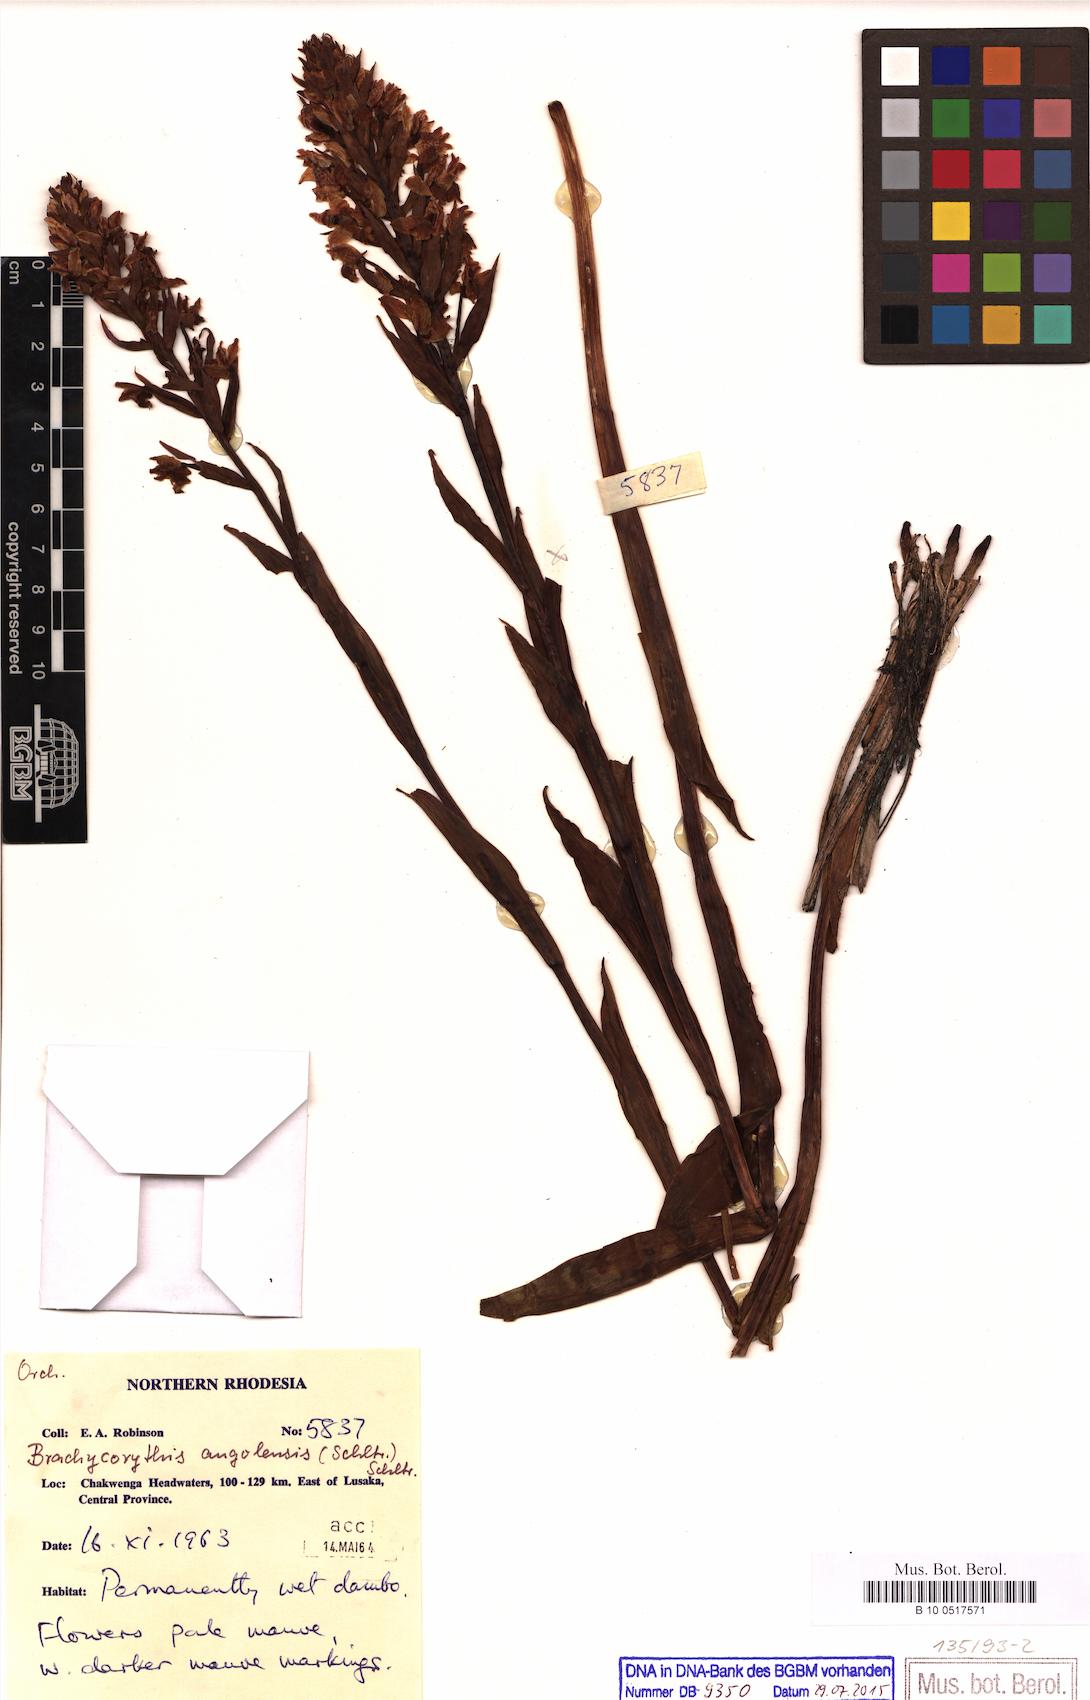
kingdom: Plantae
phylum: Tracheophyta
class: Liliopsida
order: Asparagales
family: Orchidaceae
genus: Brachycorythis
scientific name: Brachycorythis angolensis
